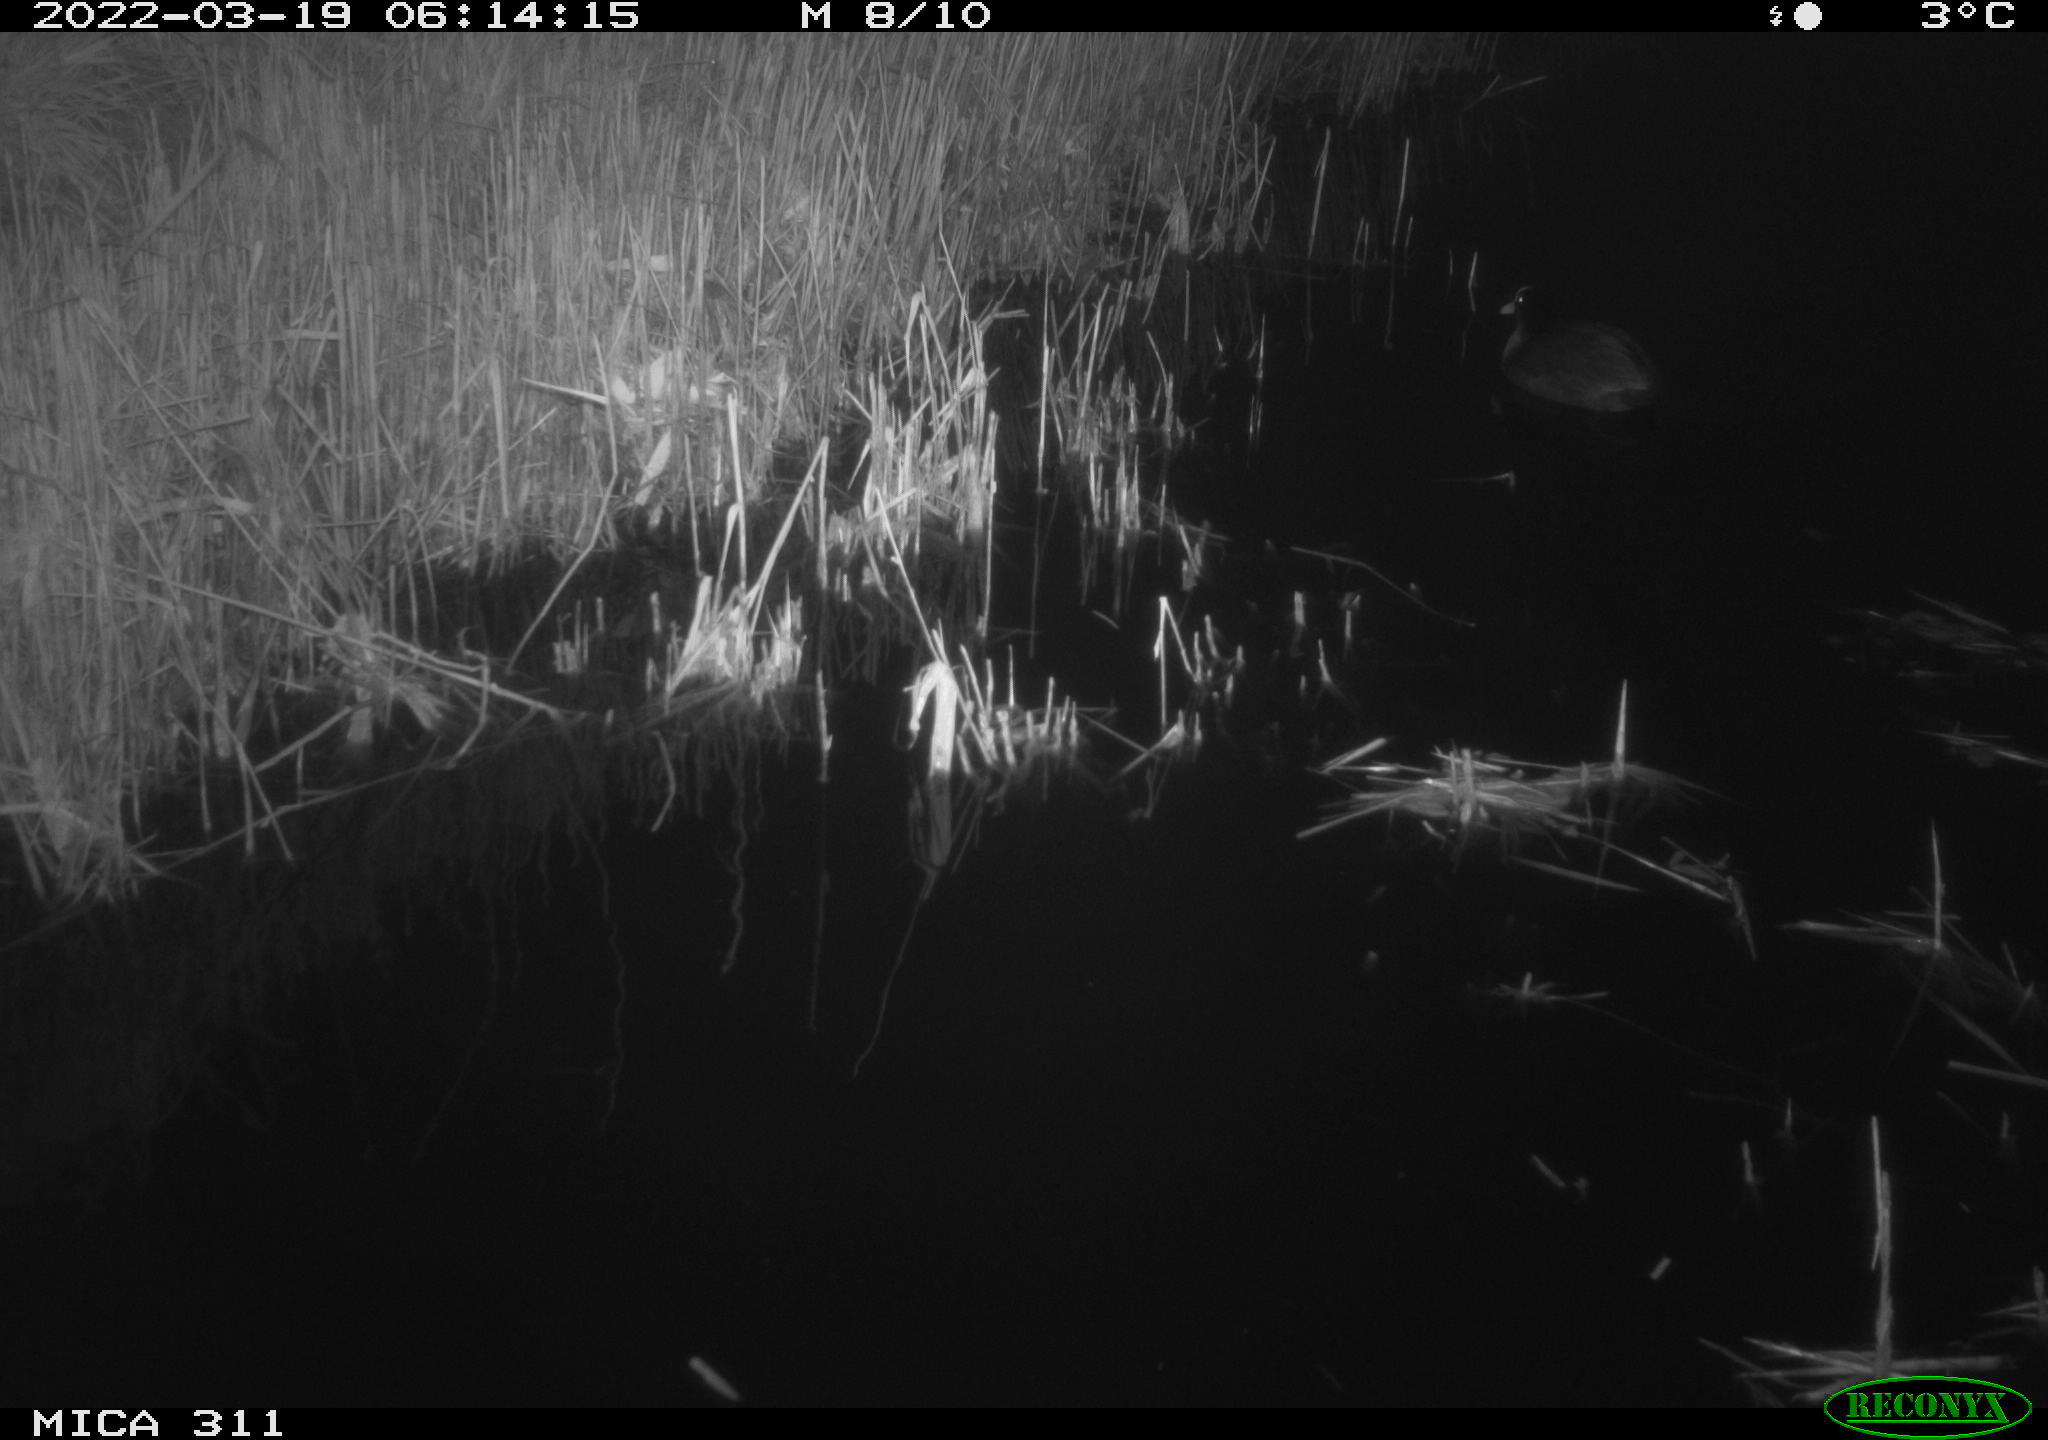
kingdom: Animalia
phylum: Chordata
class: Aves
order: Gruiformes
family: Rallidae
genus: Gallinula
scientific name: Gallinula chloropus
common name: Common moorhen
